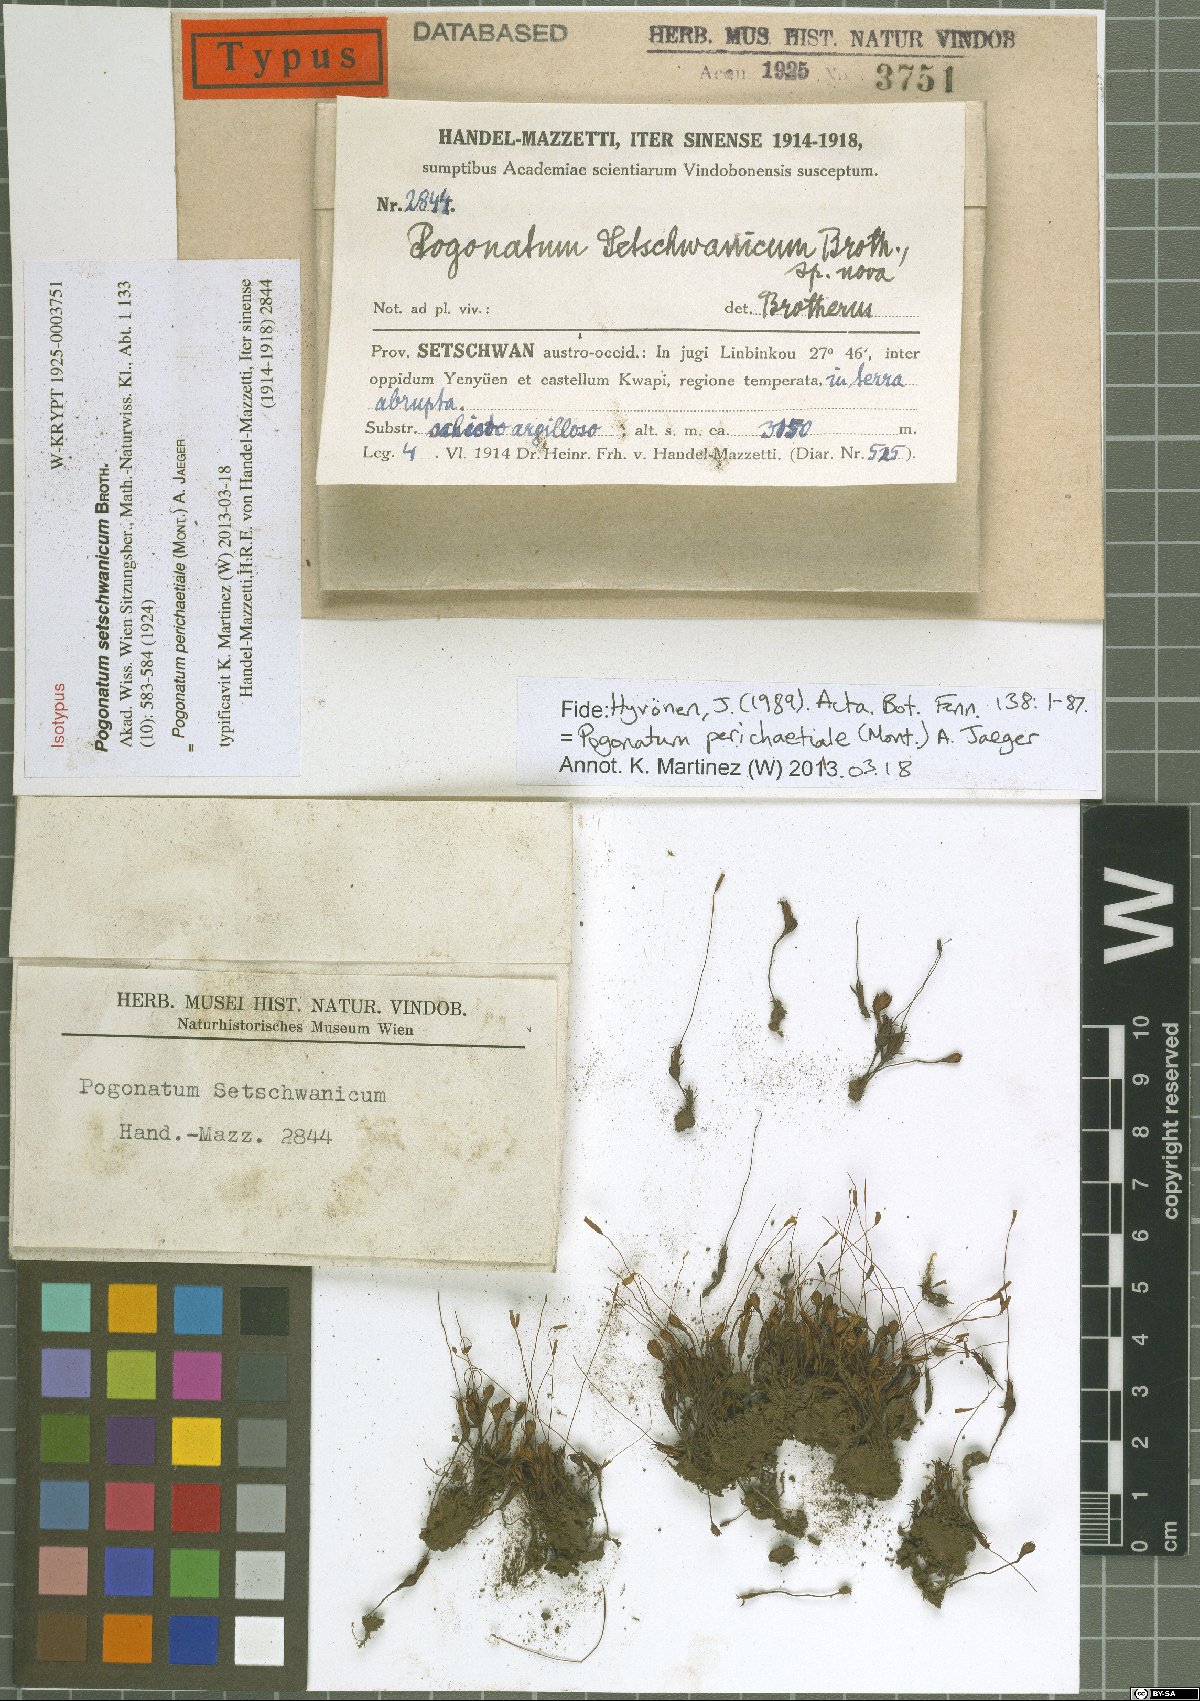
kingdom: Plantae
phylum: Bryophyta
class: Polytrichopsida
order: Polytrichales
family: Polytrichaceae
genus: Pogonatum
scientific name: Pogonatum perichaetiale
